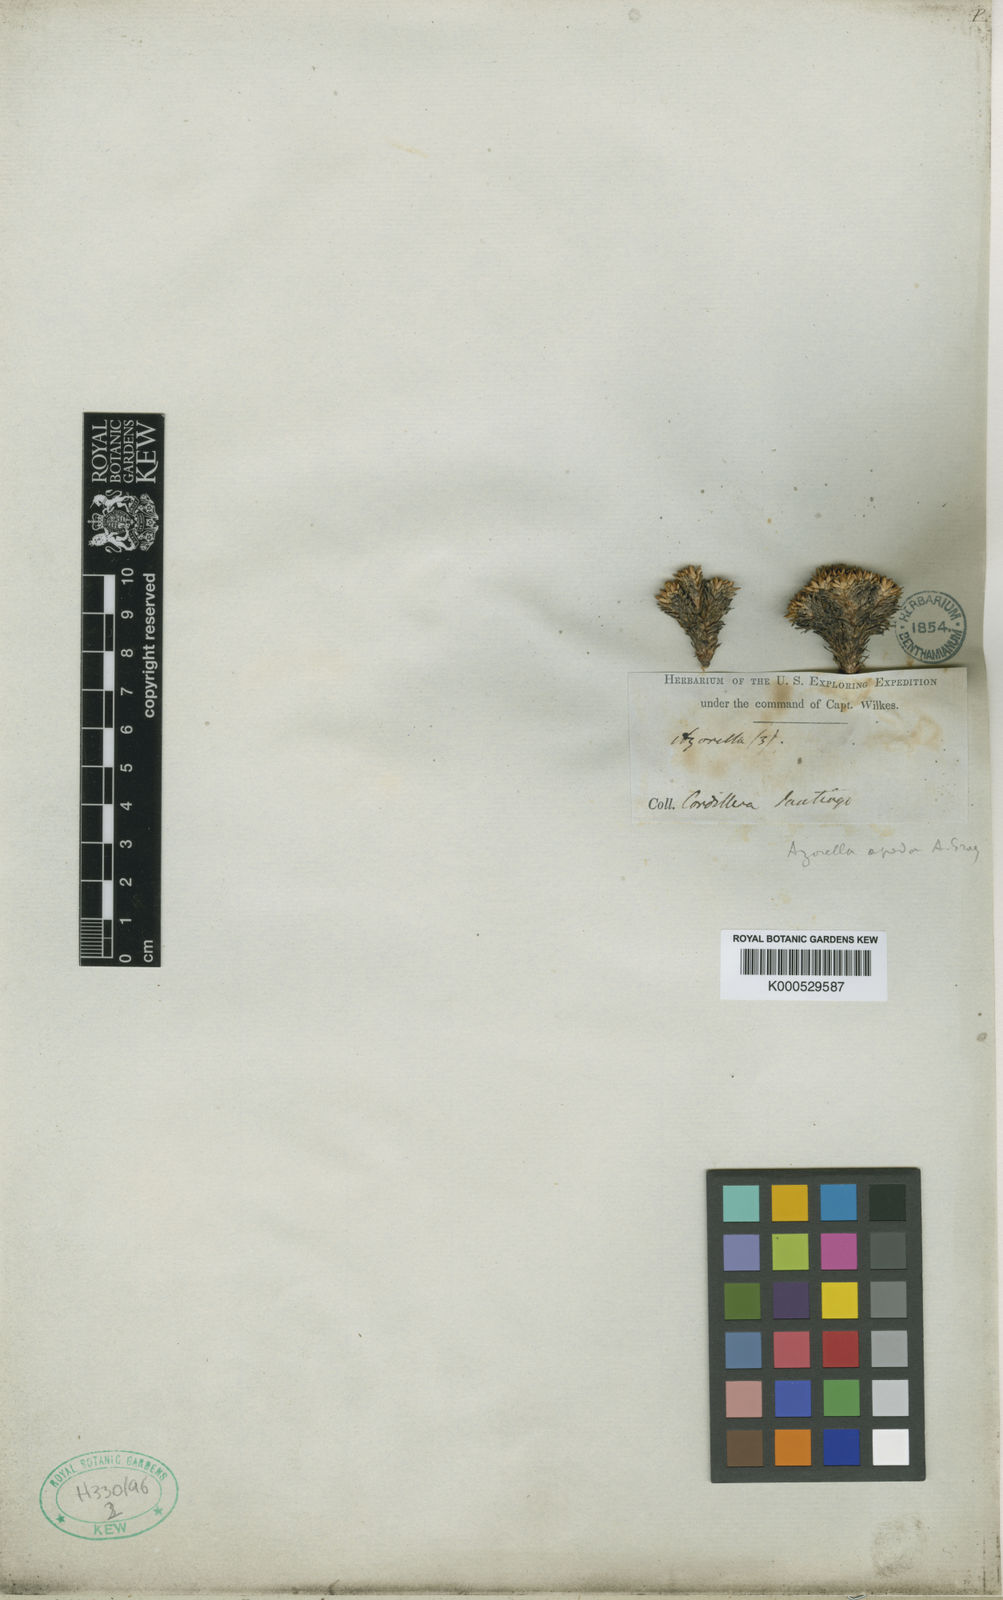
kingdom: Plantae
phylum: Tracheophyta
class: Magnoliopsida
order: Apiales
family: Apiaceae
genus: Azorella
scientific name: Azorella monantha
